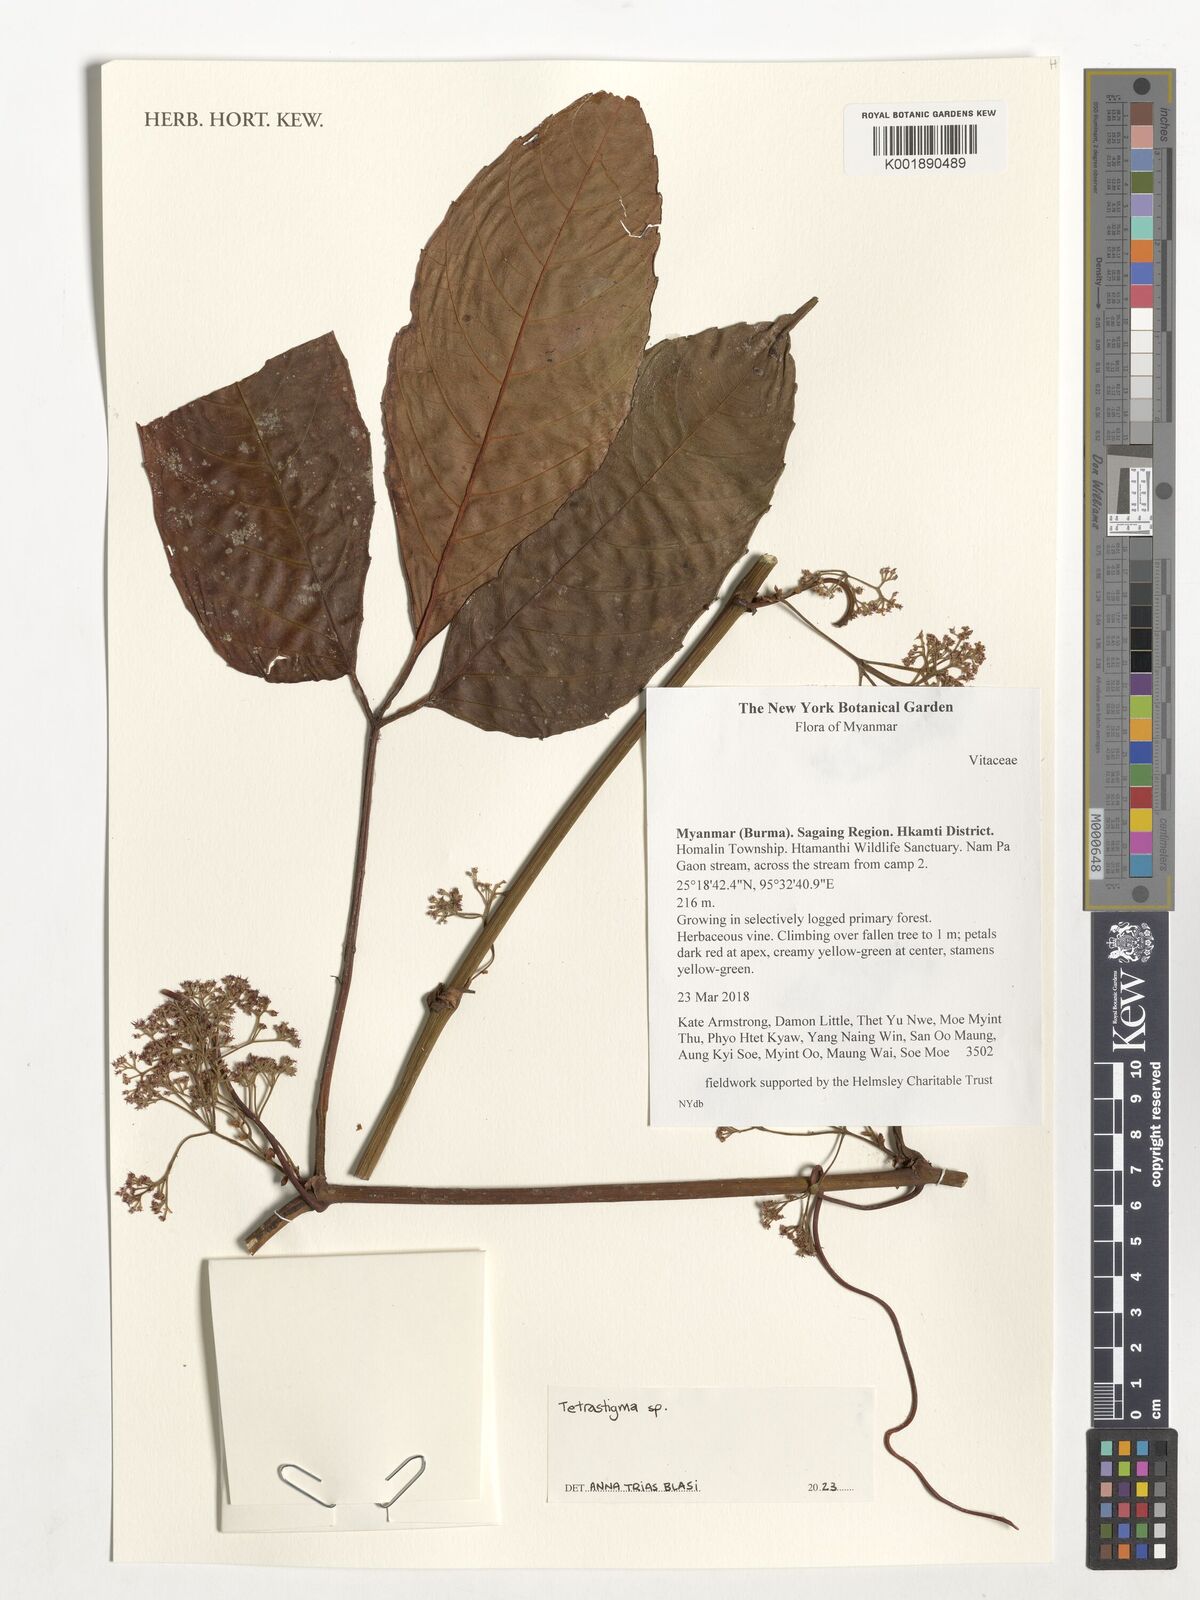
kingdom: Plantae
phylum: Tracheophyta
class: Magnoliopsida
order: Vitales
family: Vitaceae
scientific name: Vitaceae
